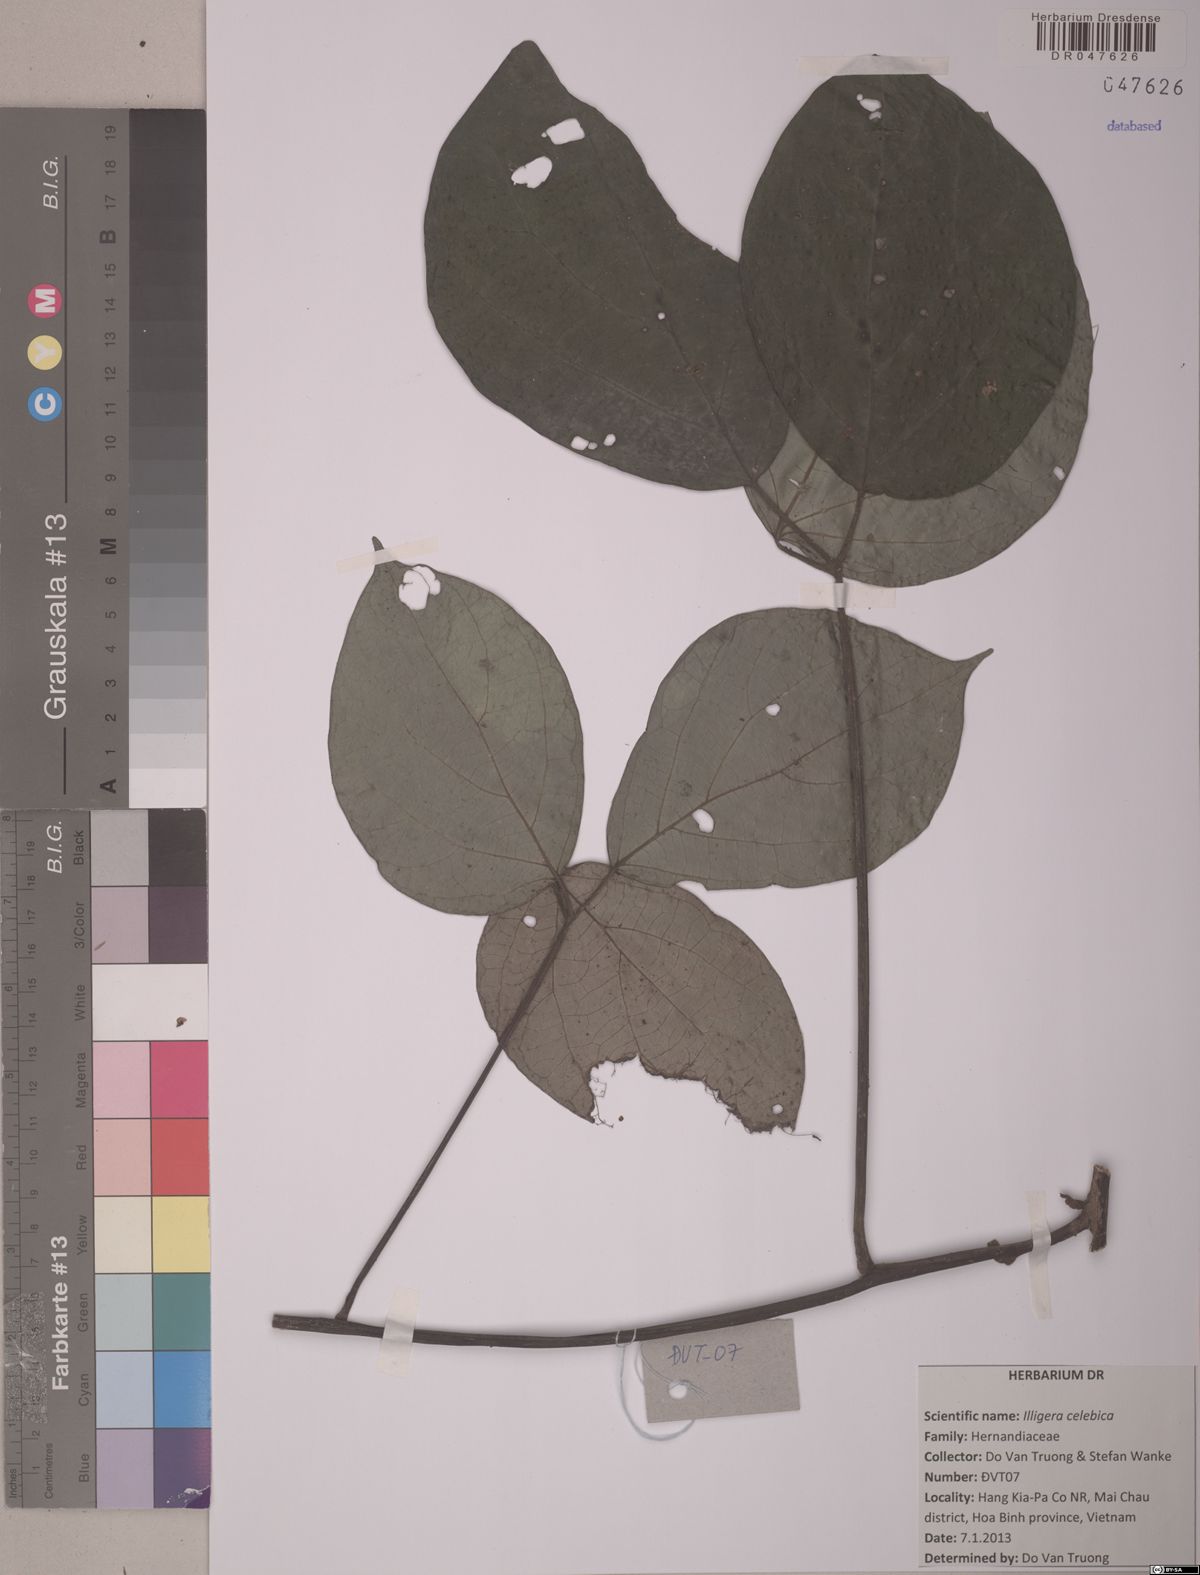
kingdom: Plantae
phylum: Tracheophyta
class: Magnoliopsida
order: Laurales
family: Hernandiaceae
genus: Illigera
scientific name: Illigera celebica
